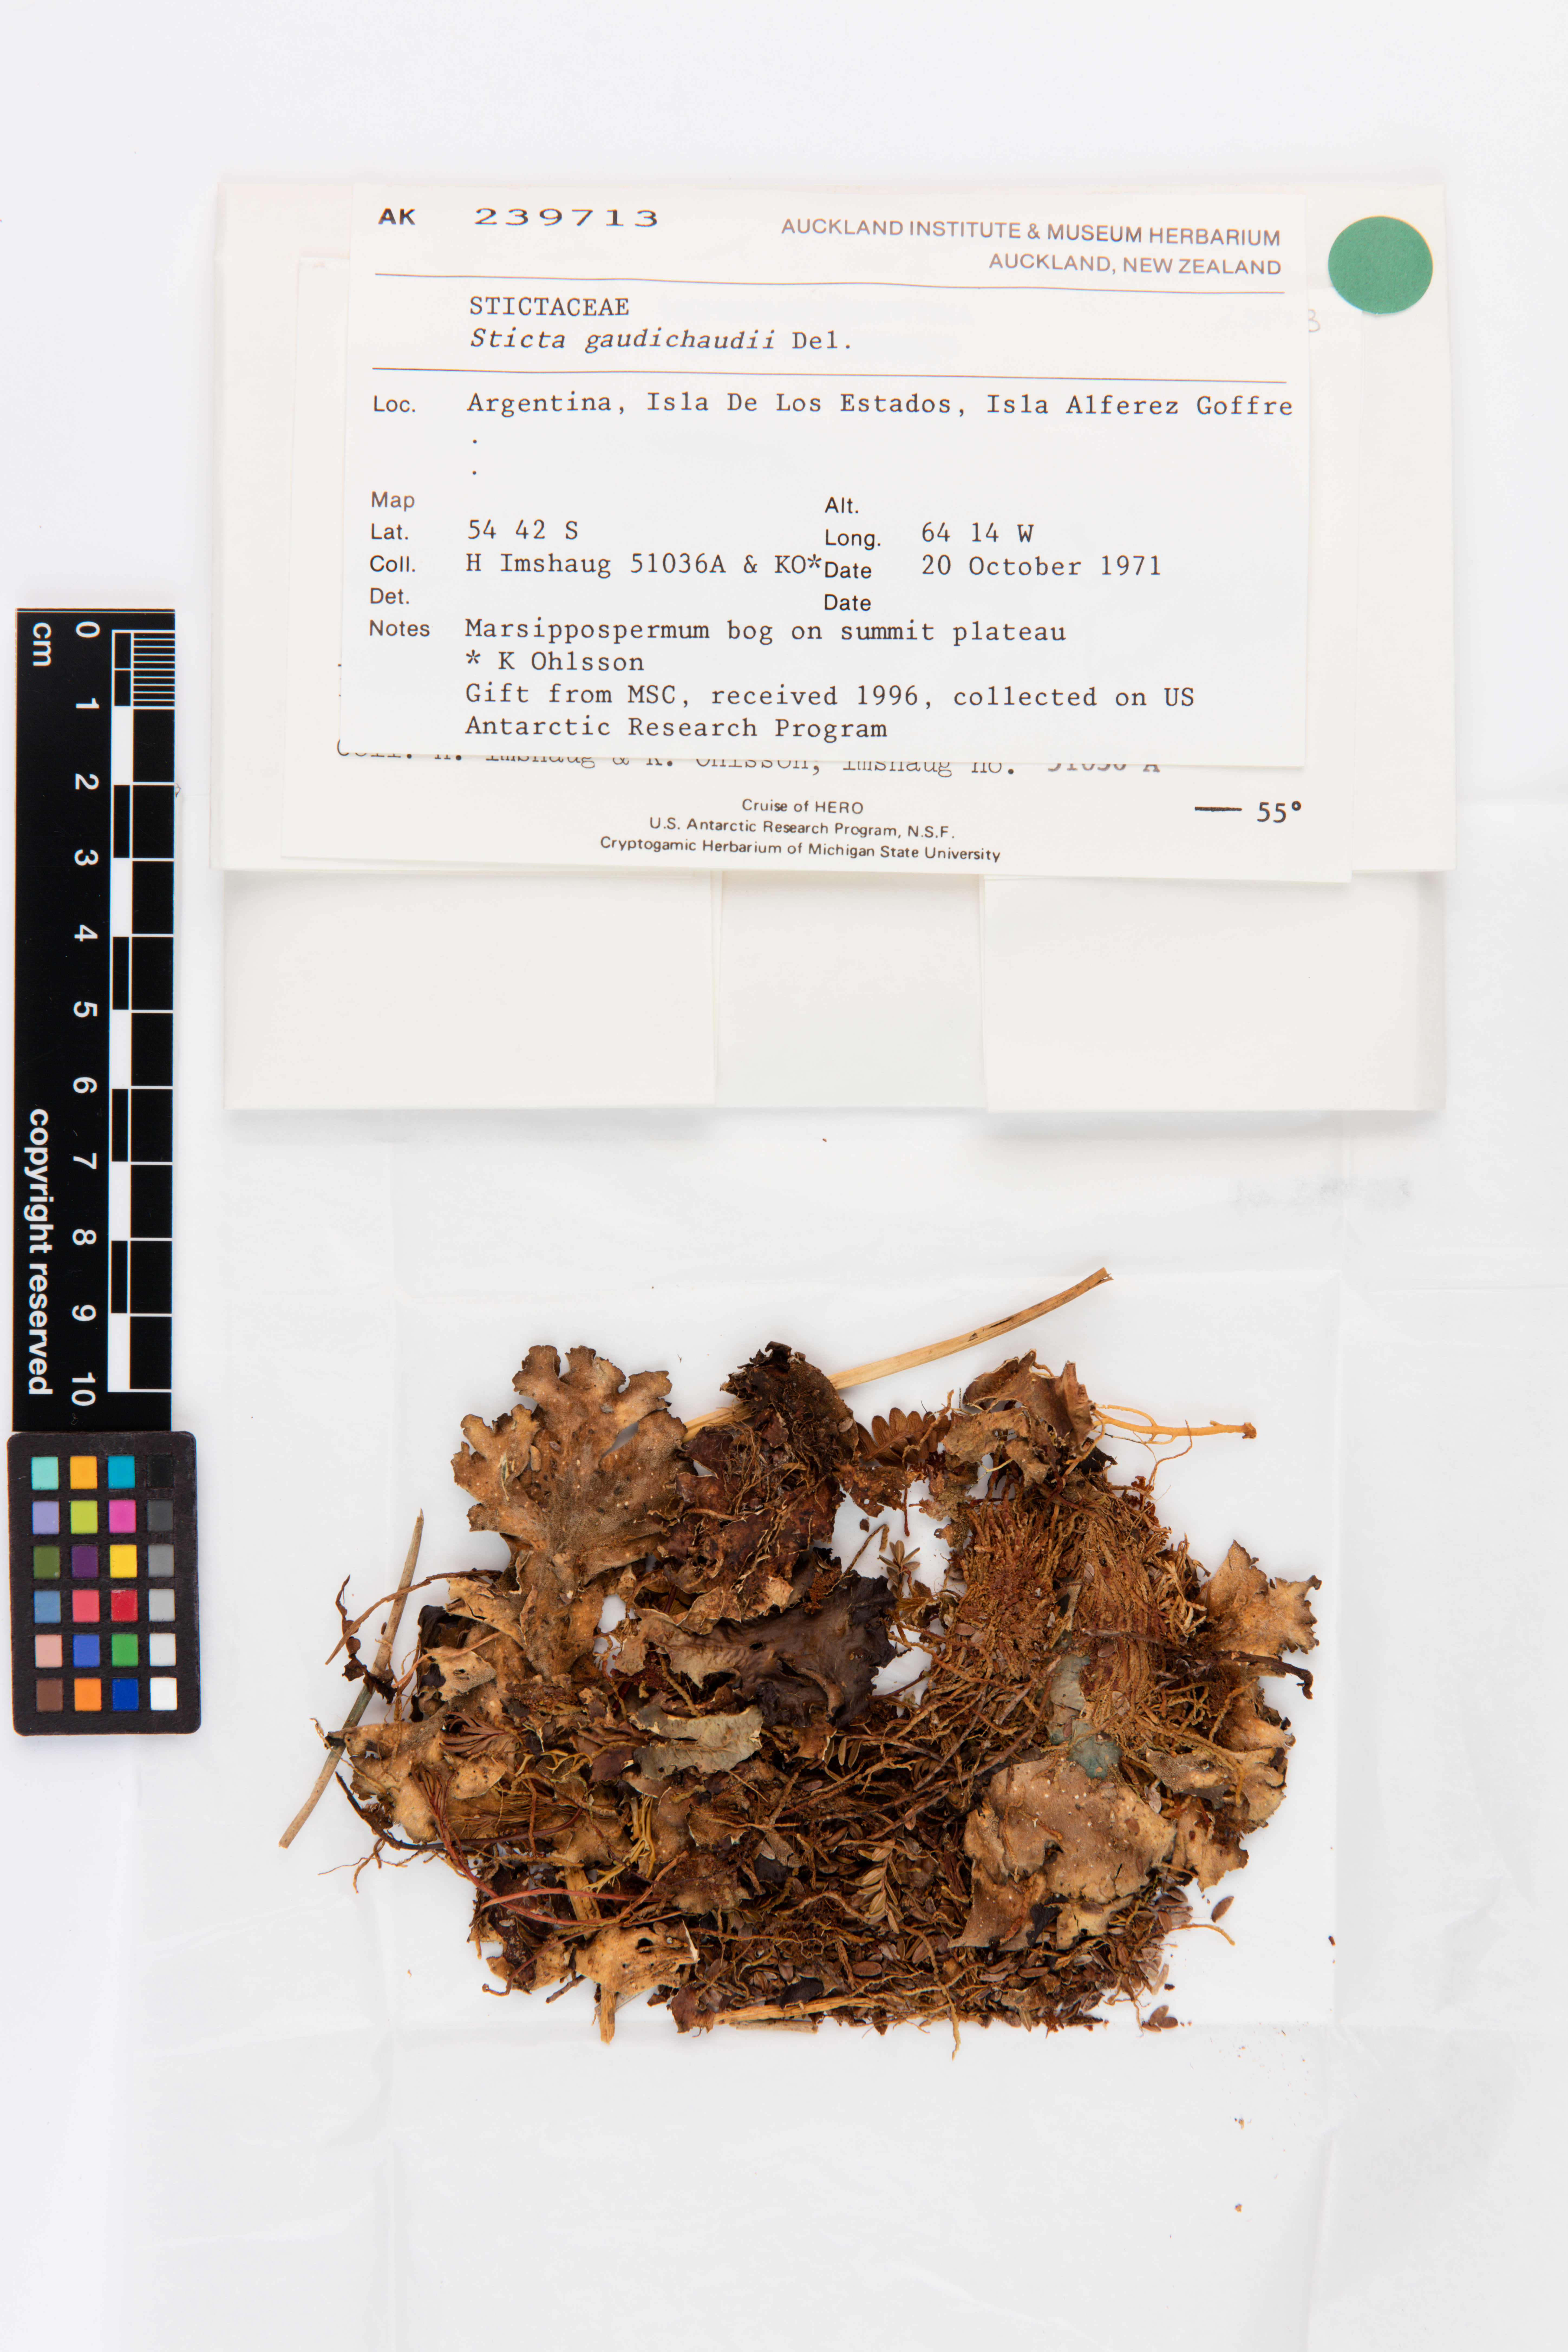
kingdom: Fungi
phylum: Ascomycota
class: Lecanoromycetes
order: Peltigerales
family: Lobariaceae
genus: Sticta
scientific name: Sticta gaudichaudii
